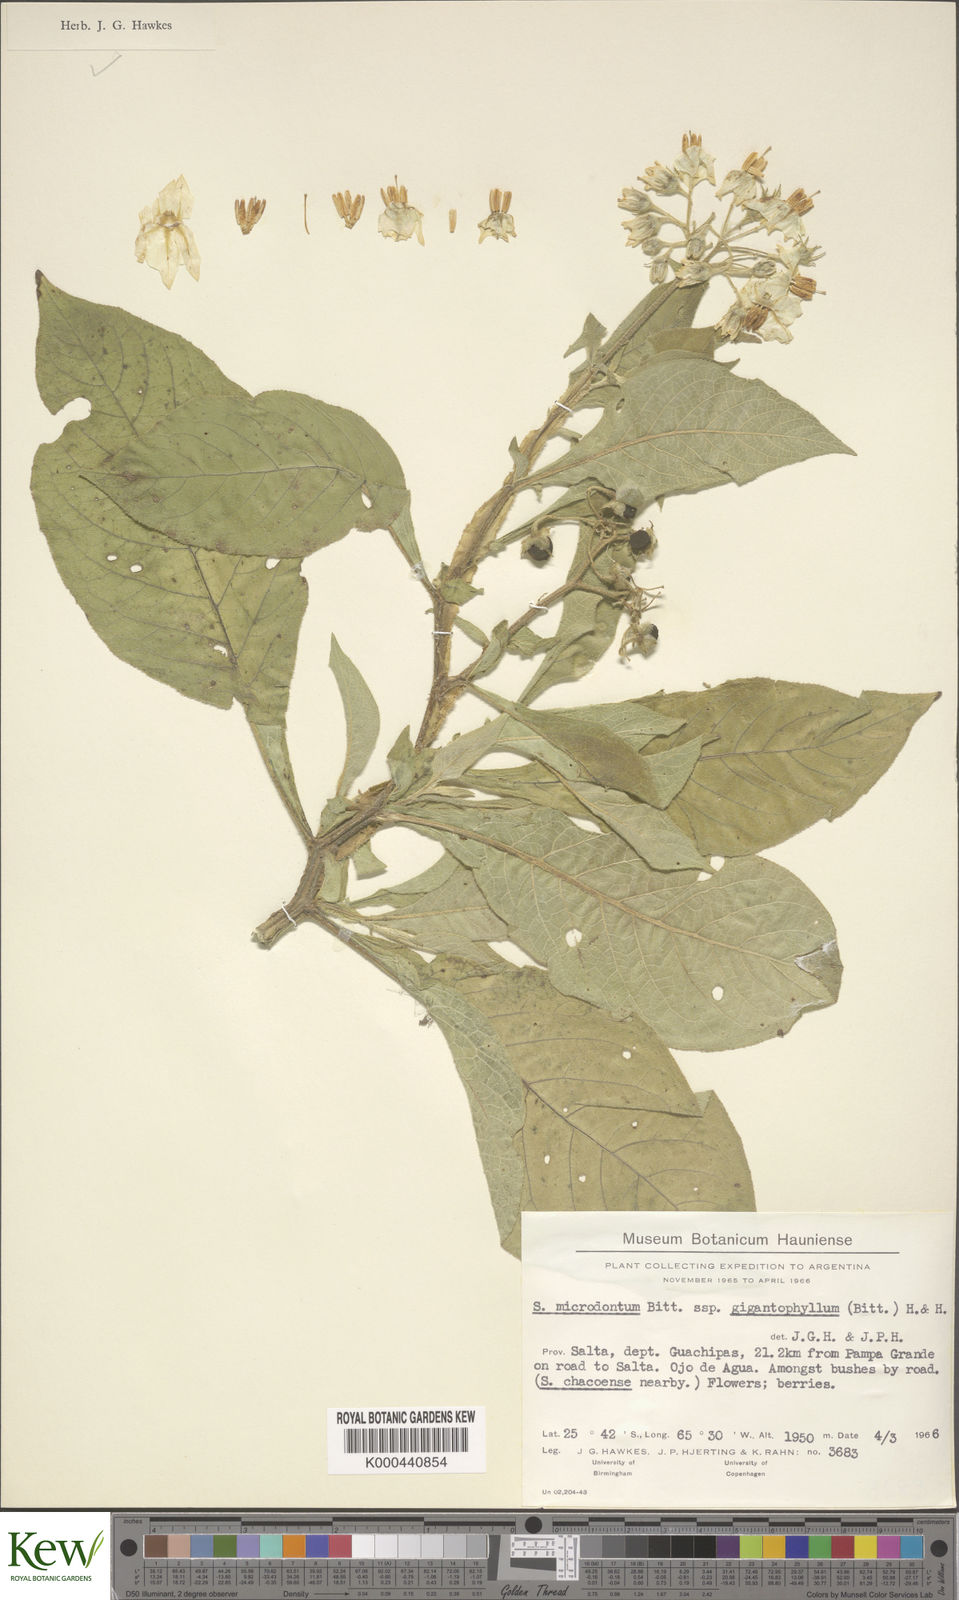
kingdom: Plantae
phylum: Tracheophyta
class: Magnoliopsida
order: Solanales
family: Solanaceae
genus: Solanum
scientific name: Solanum microdontum
